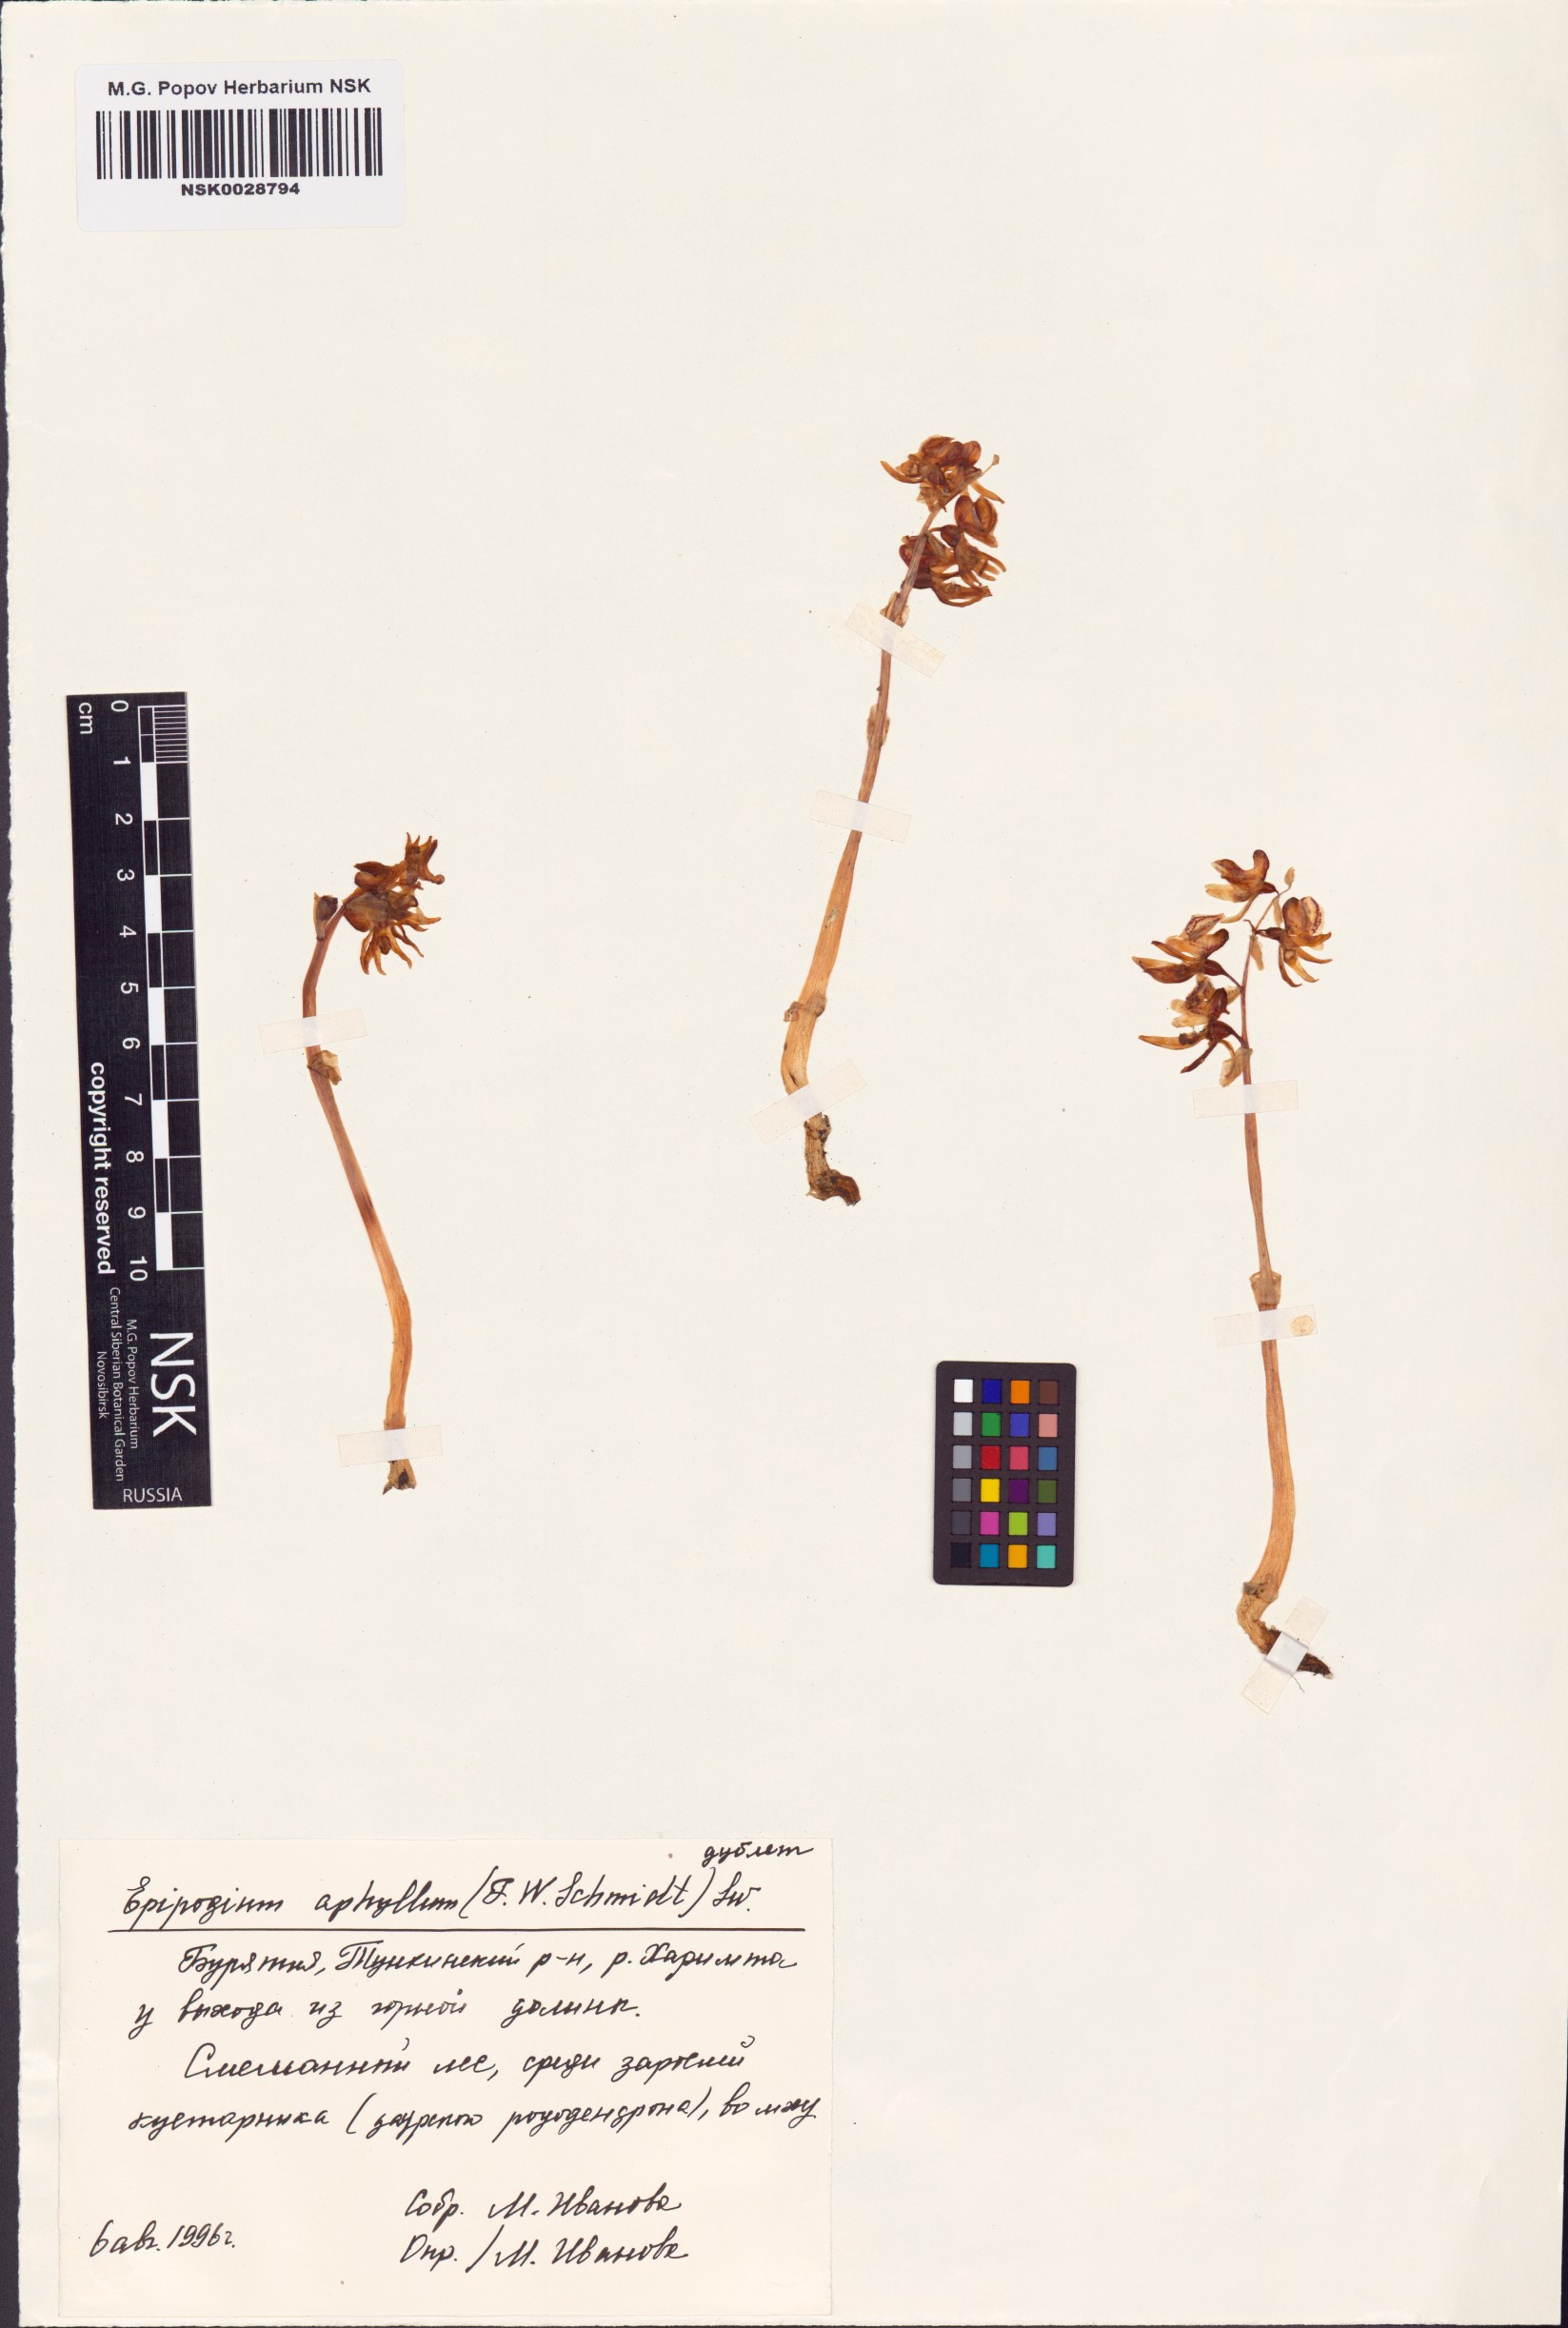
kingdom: Plantae
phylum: Tracheophyta
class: Liliopsida
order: Asparagales
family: Orchidaceae
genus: Epipogium
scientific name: Epipogium aphyllum
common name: Ghost orchid
